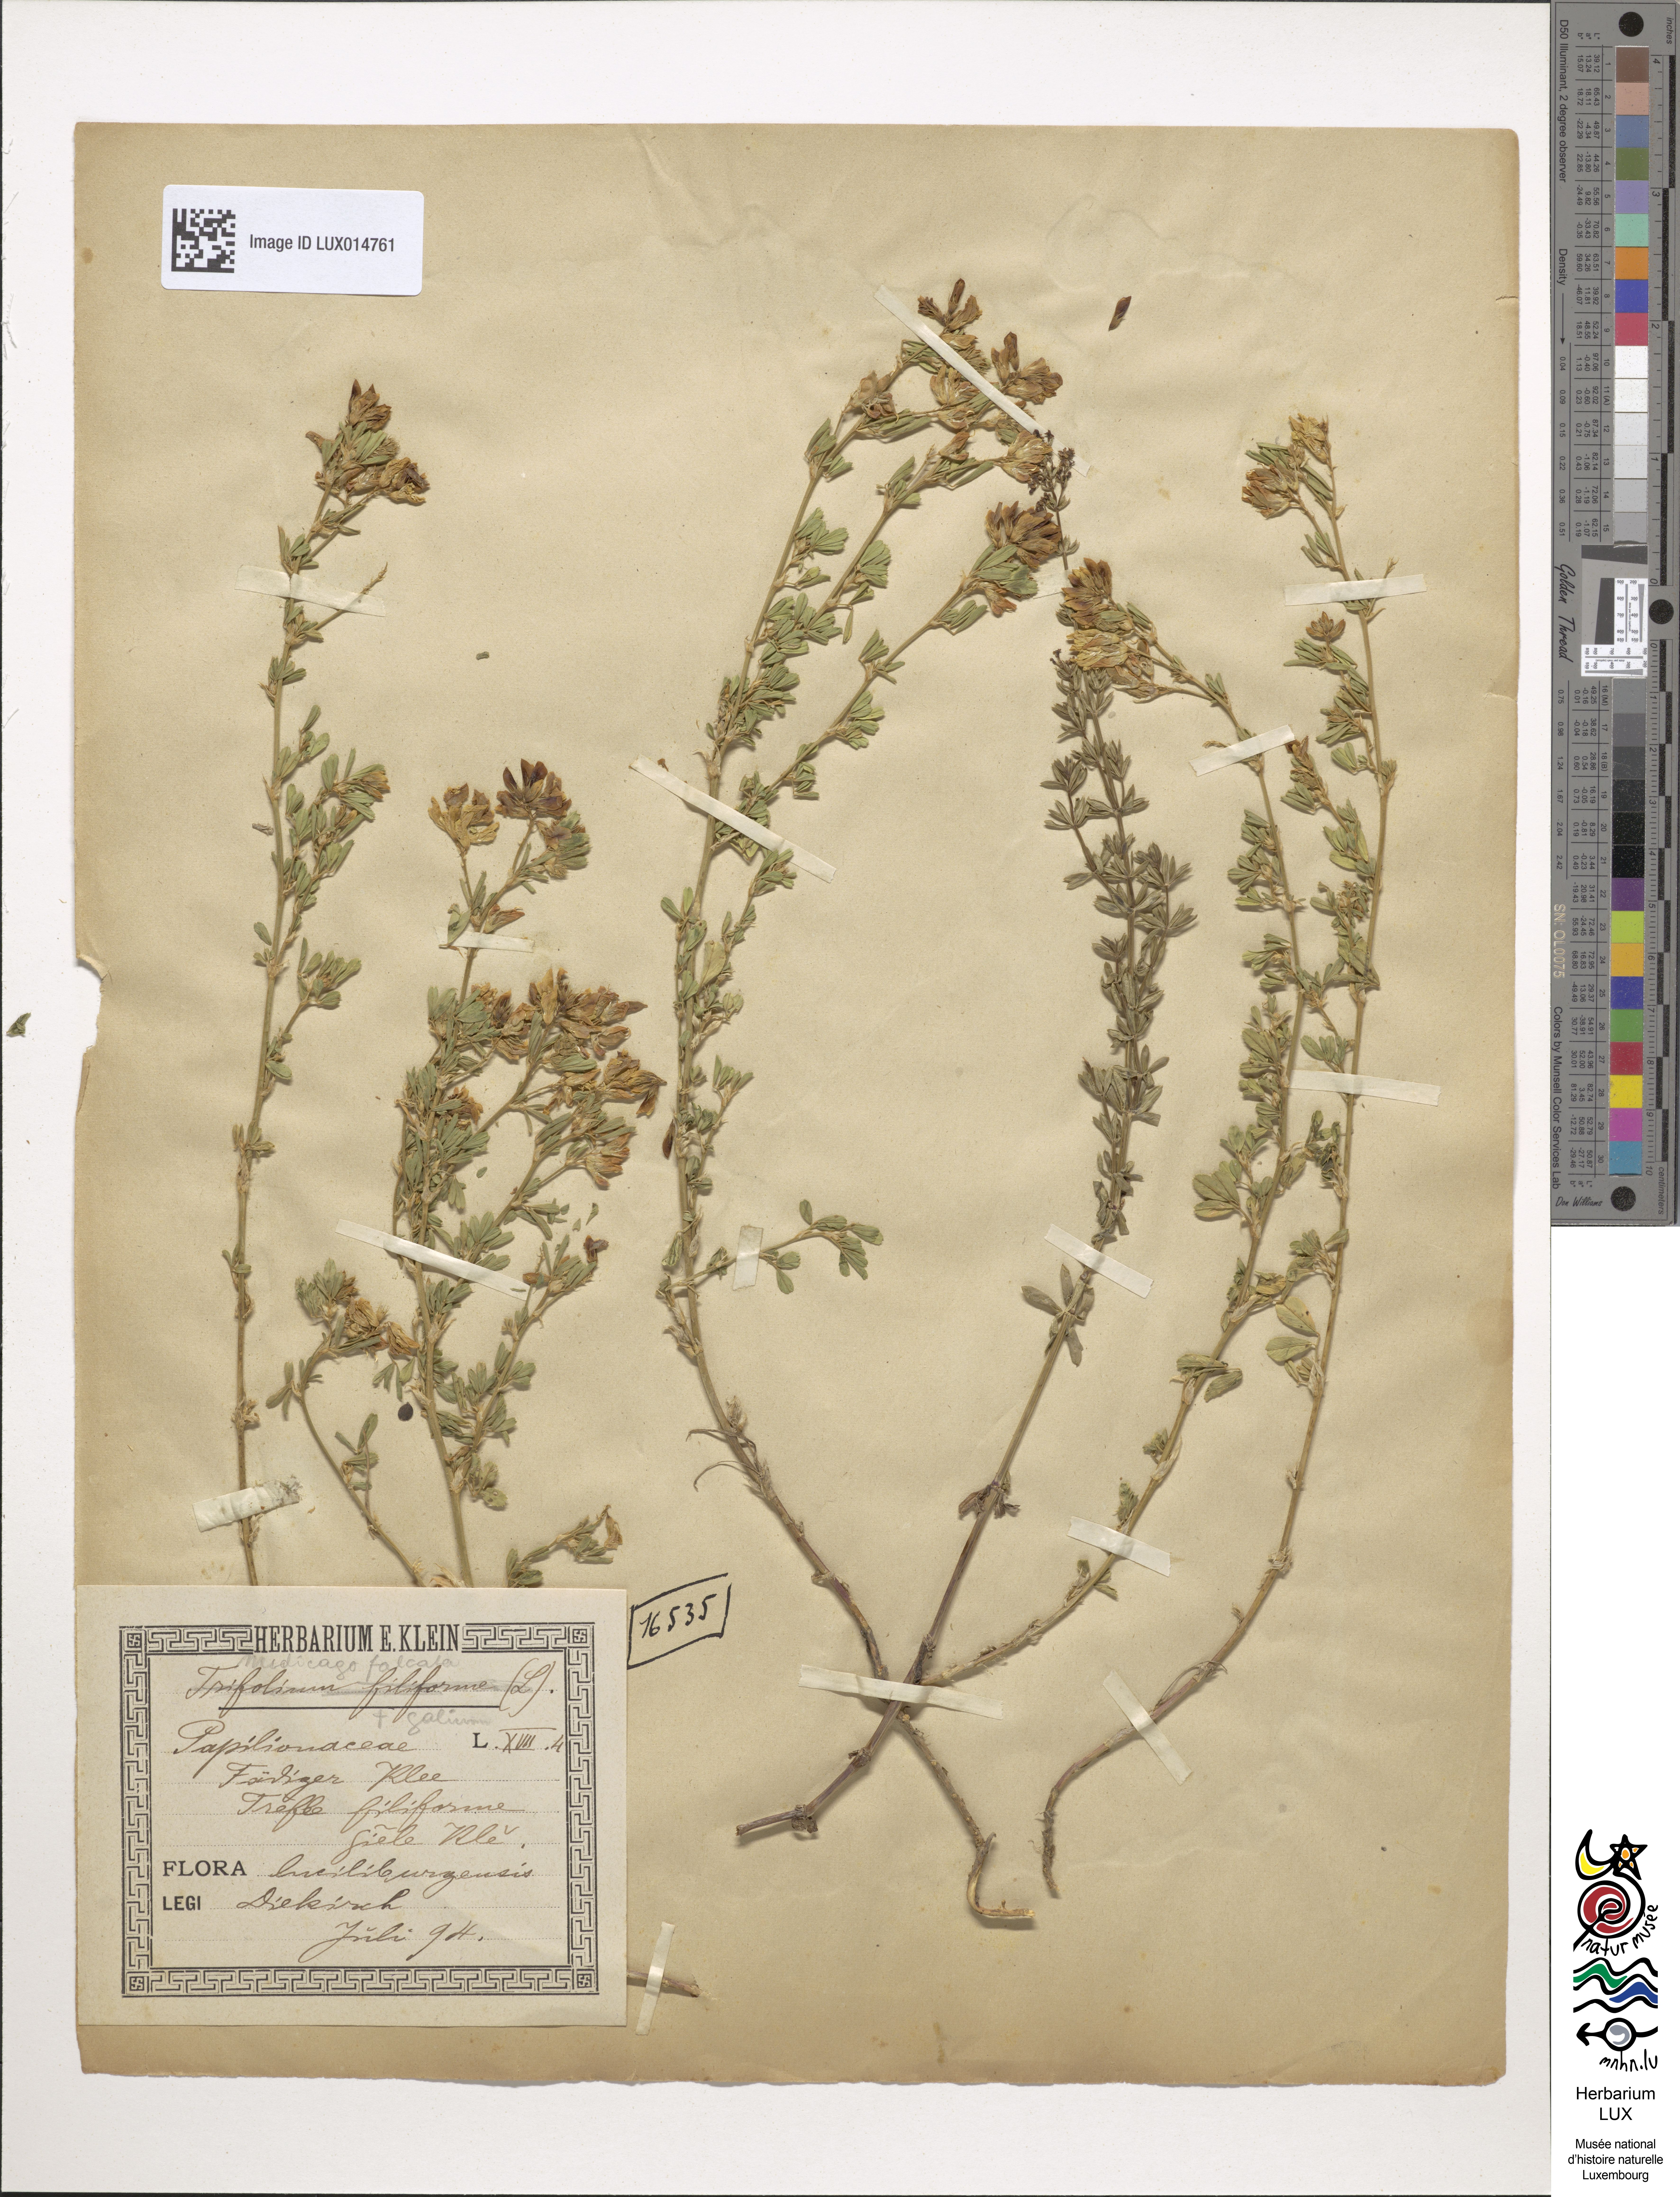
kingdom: Plantae
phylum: Tracheophyta
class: Magnoliopsida
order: Fabales
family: Fabaceae
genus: Medicago
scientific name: Medicago falcata
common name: Sickle medick
